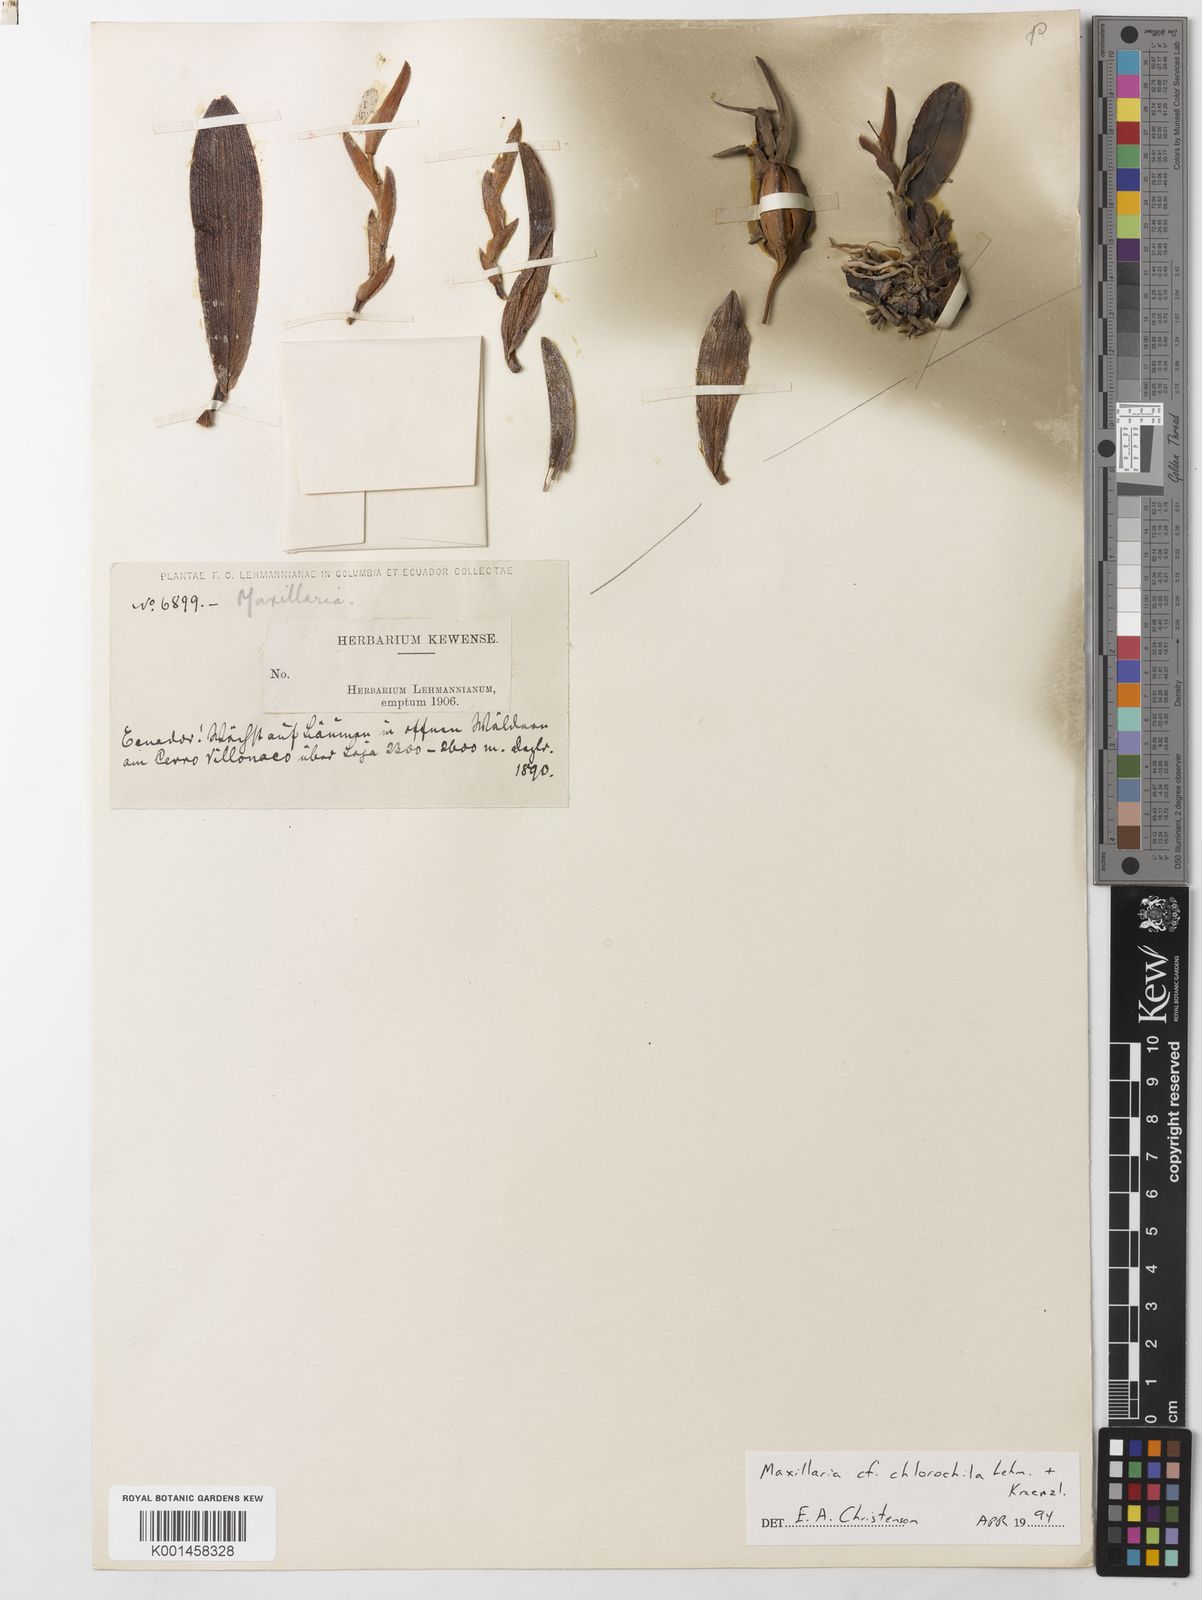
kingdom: Plantae
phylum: Tracheophyta
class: Liliopsida
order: Asparagales
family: Orchidaceae
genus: Maxillaria
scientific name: Maxillaria alpestris
